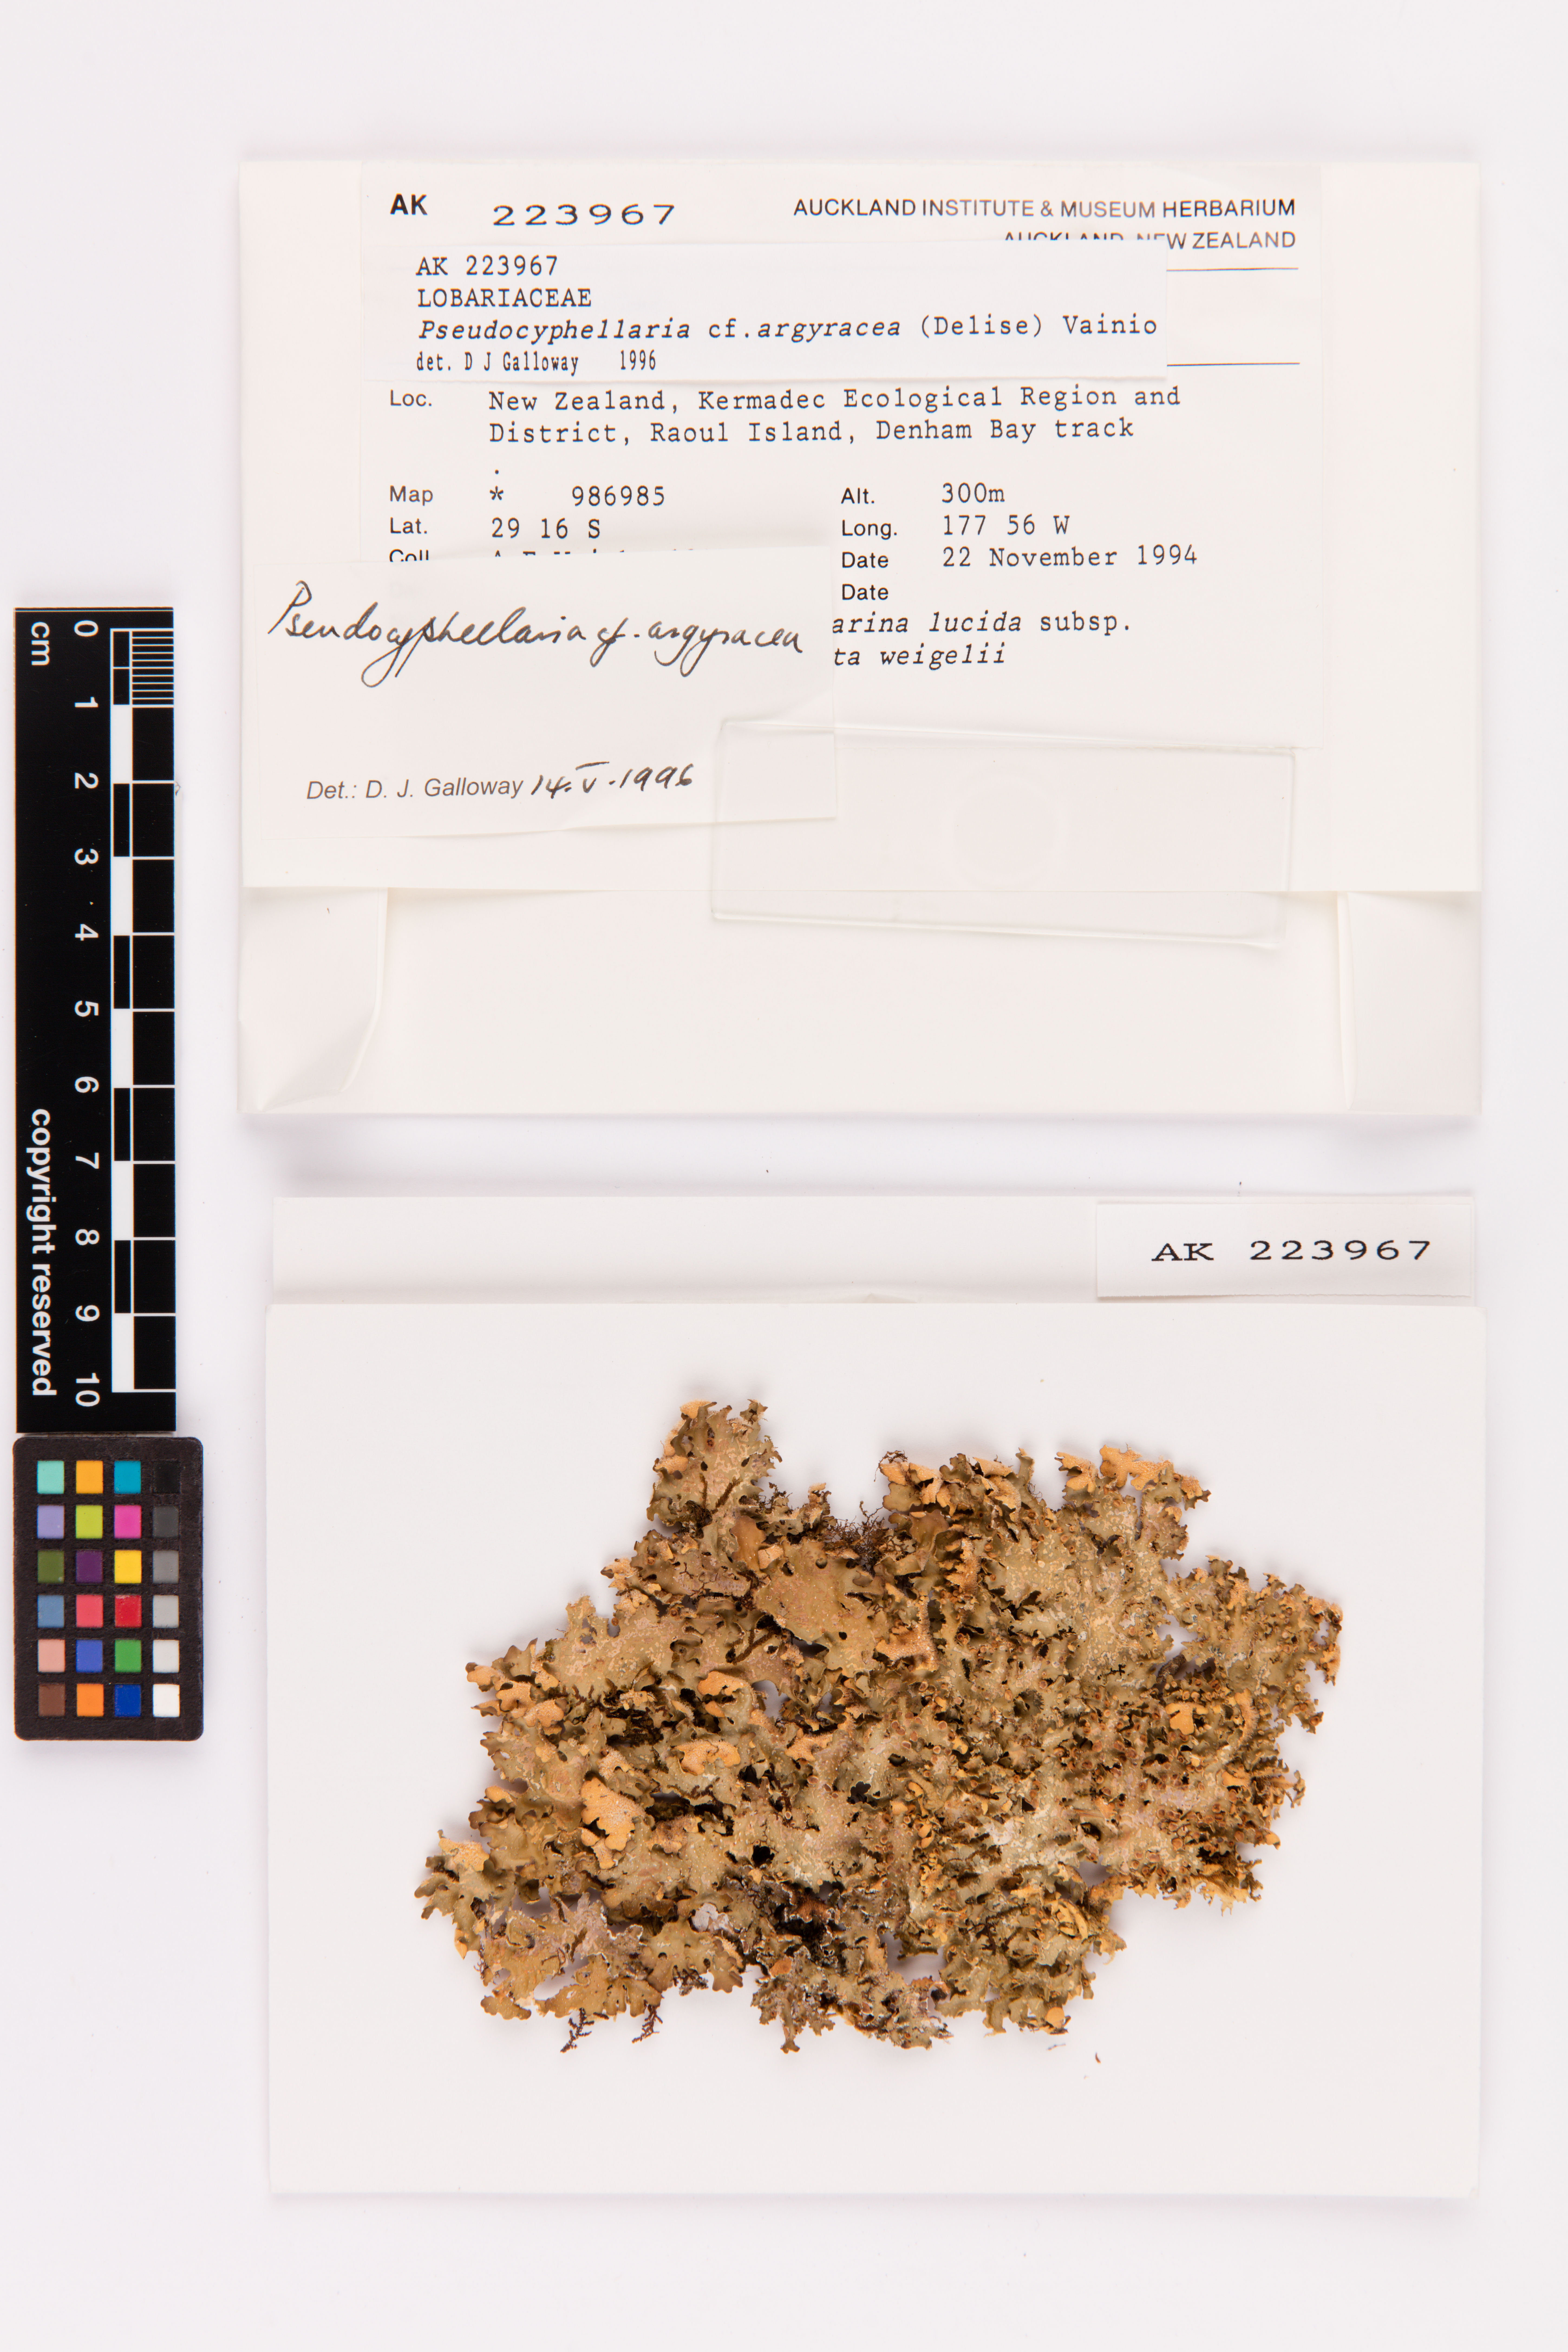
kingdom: Fungi
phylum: Ascomycota
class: Lecanoromycetes
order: Peltigerales
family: Lobariaceae
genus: Pseudocyphellaria
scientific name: Pseudocyphellaria argyracea
